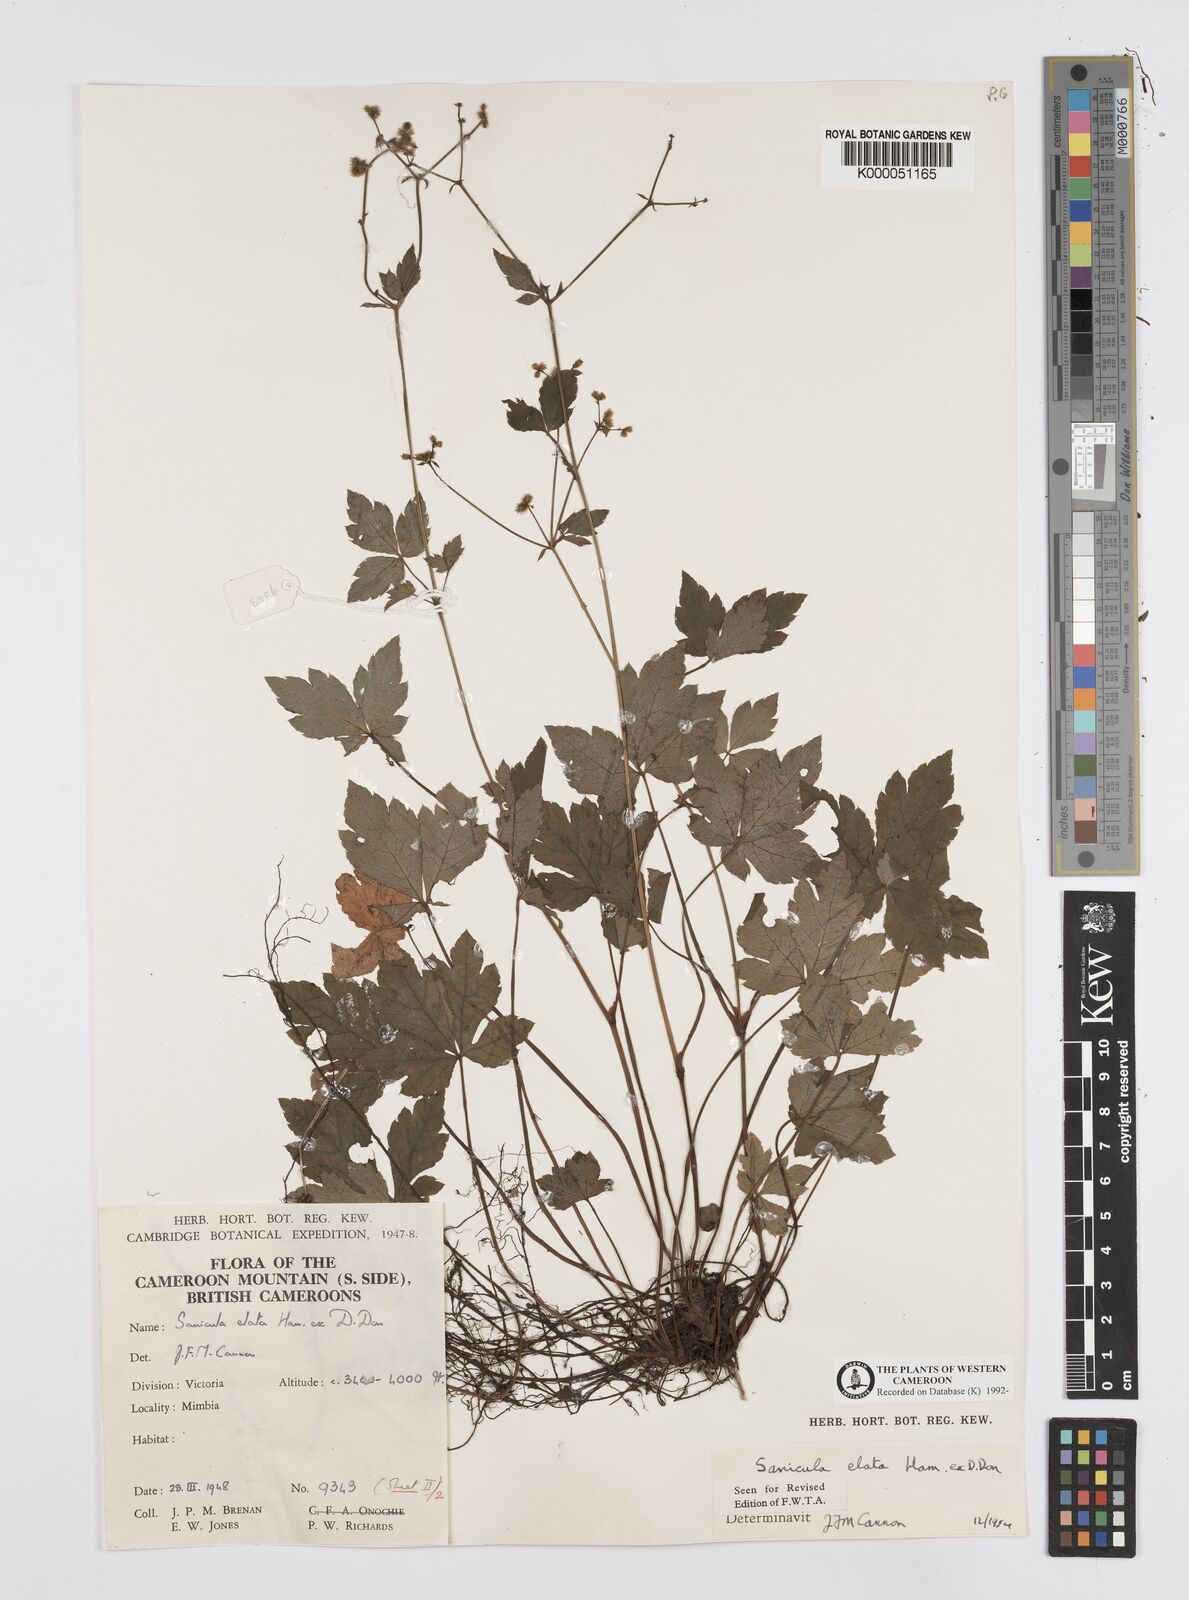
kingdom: Plantae
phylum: Tracheophyta
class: Magnoliopsida
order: Apiales
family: Apiaceae
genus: Sanicula
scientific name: Sanicula
